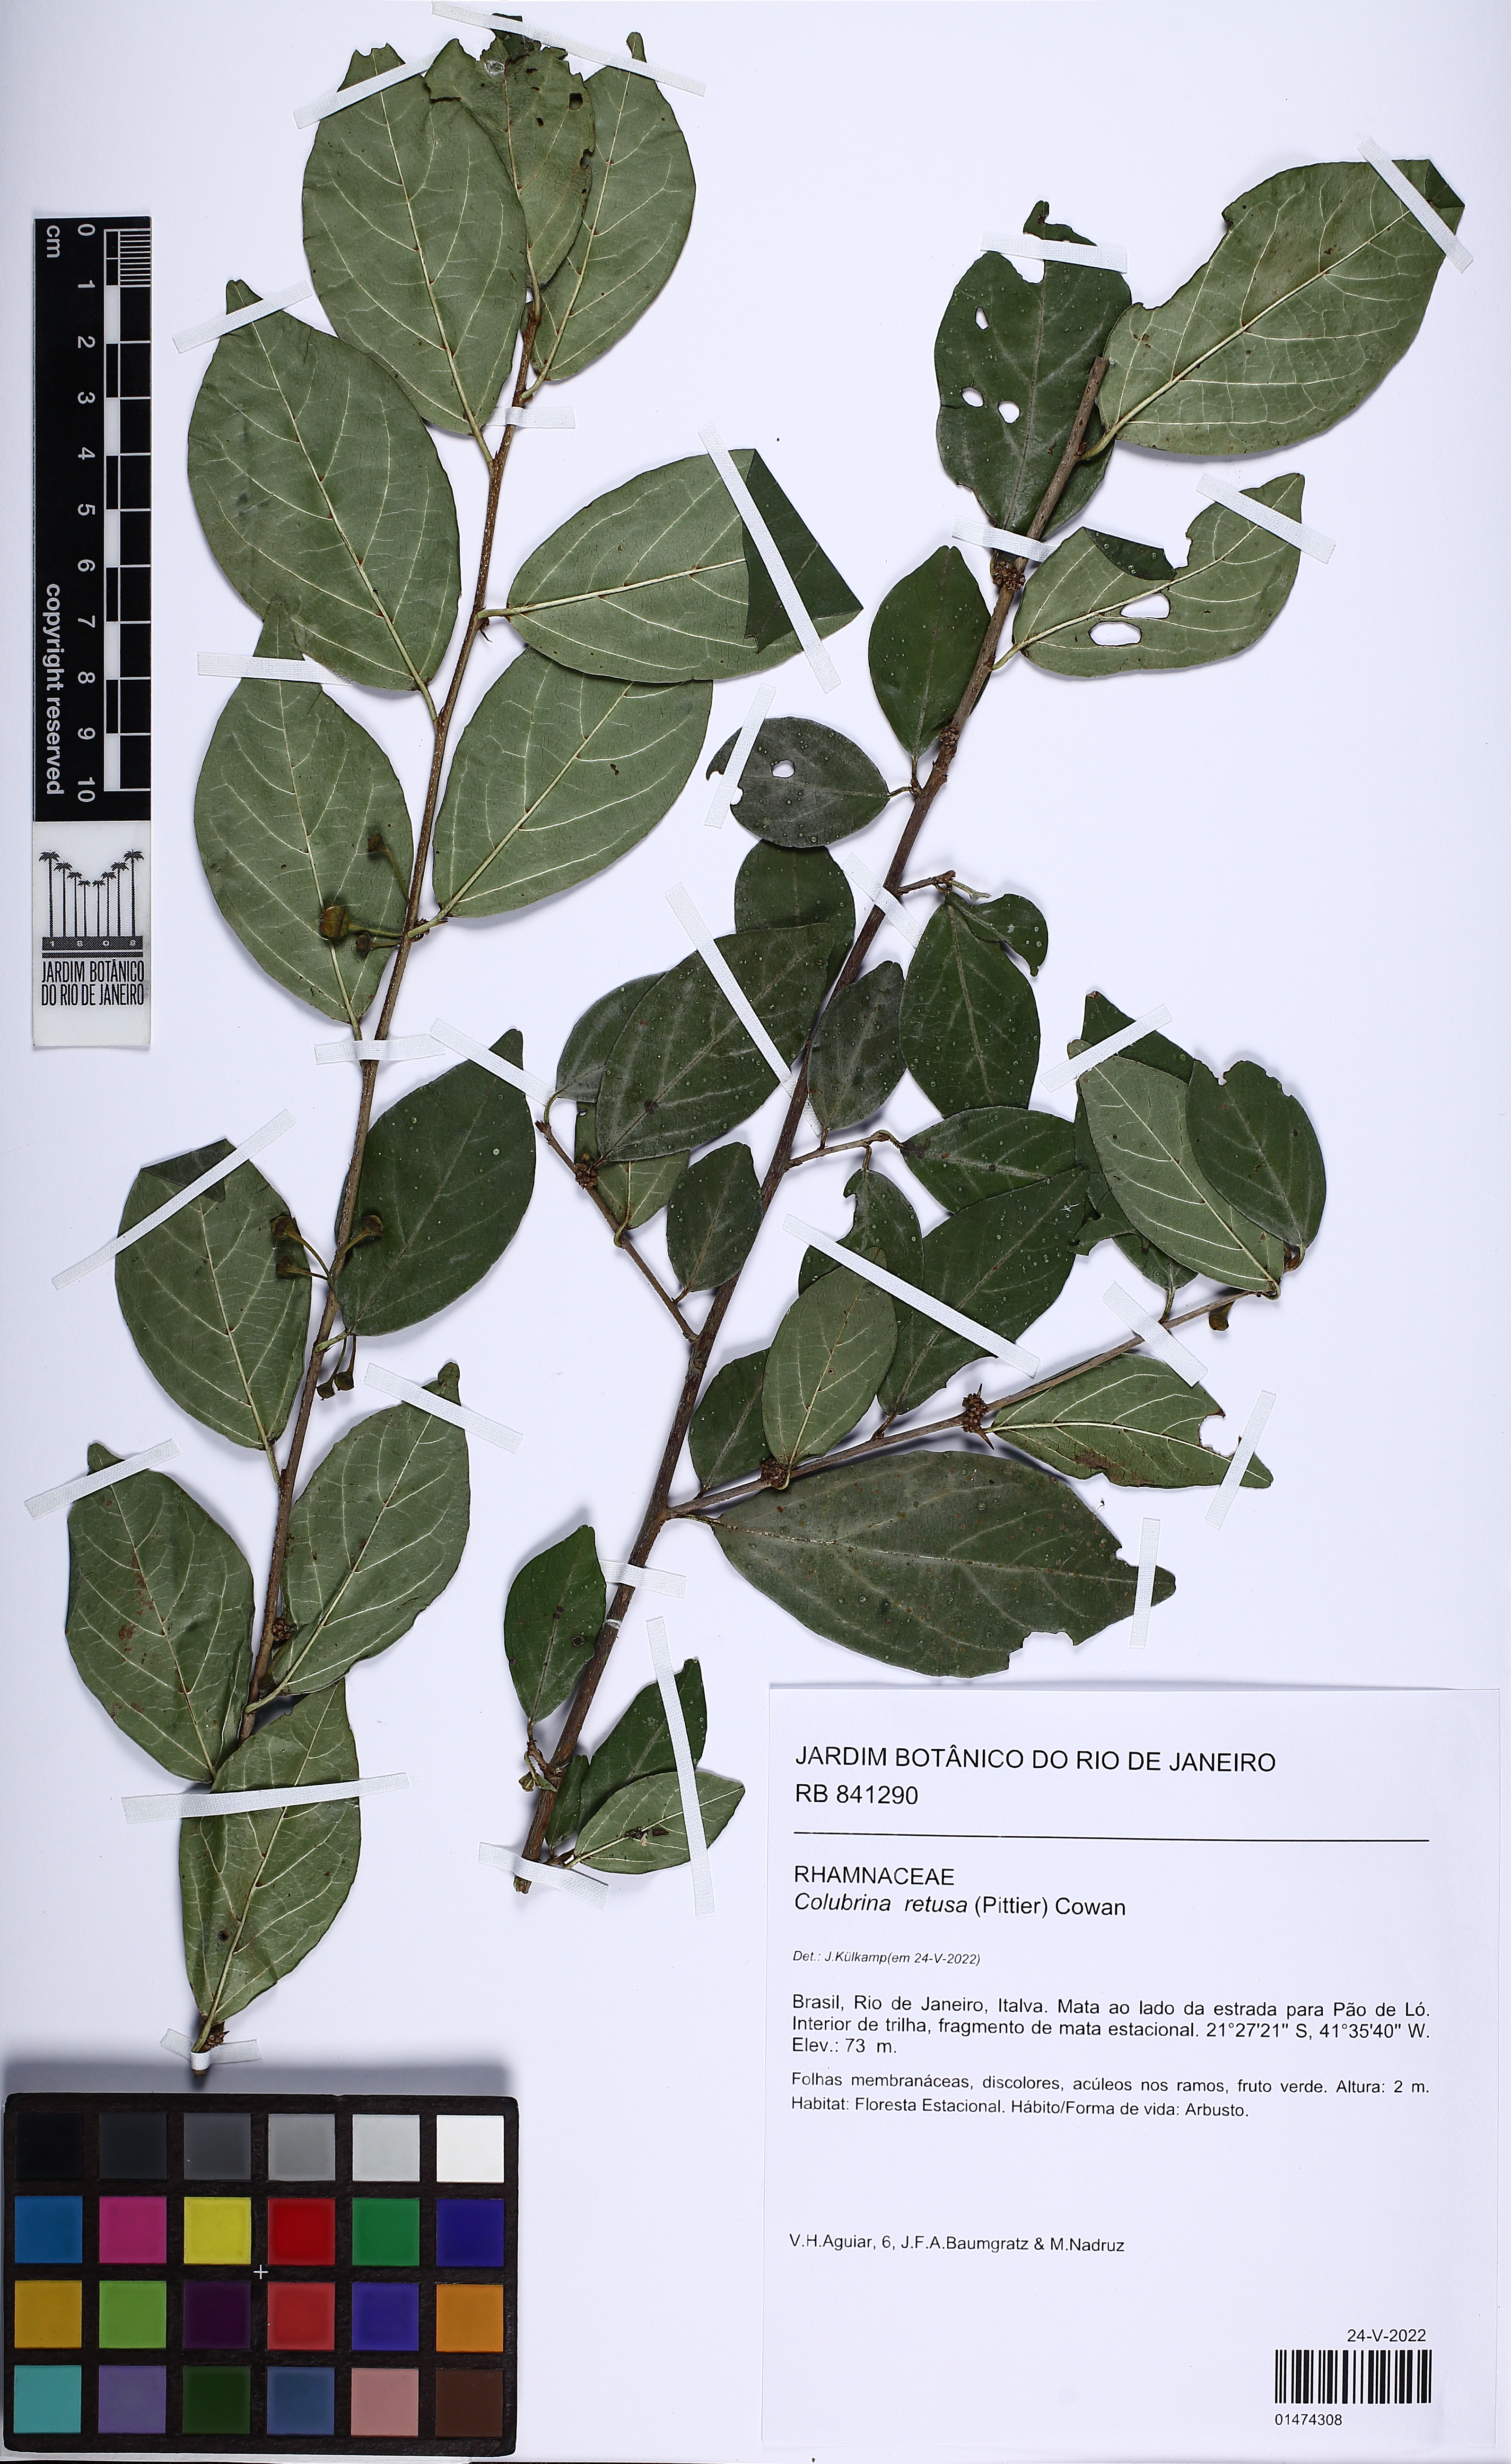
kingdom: Plantae
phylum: Tracheophyta
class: Magnoliopsida
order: Rosales
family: Rhamnaceae
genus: Colubrina
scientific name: Colubrina retusa
